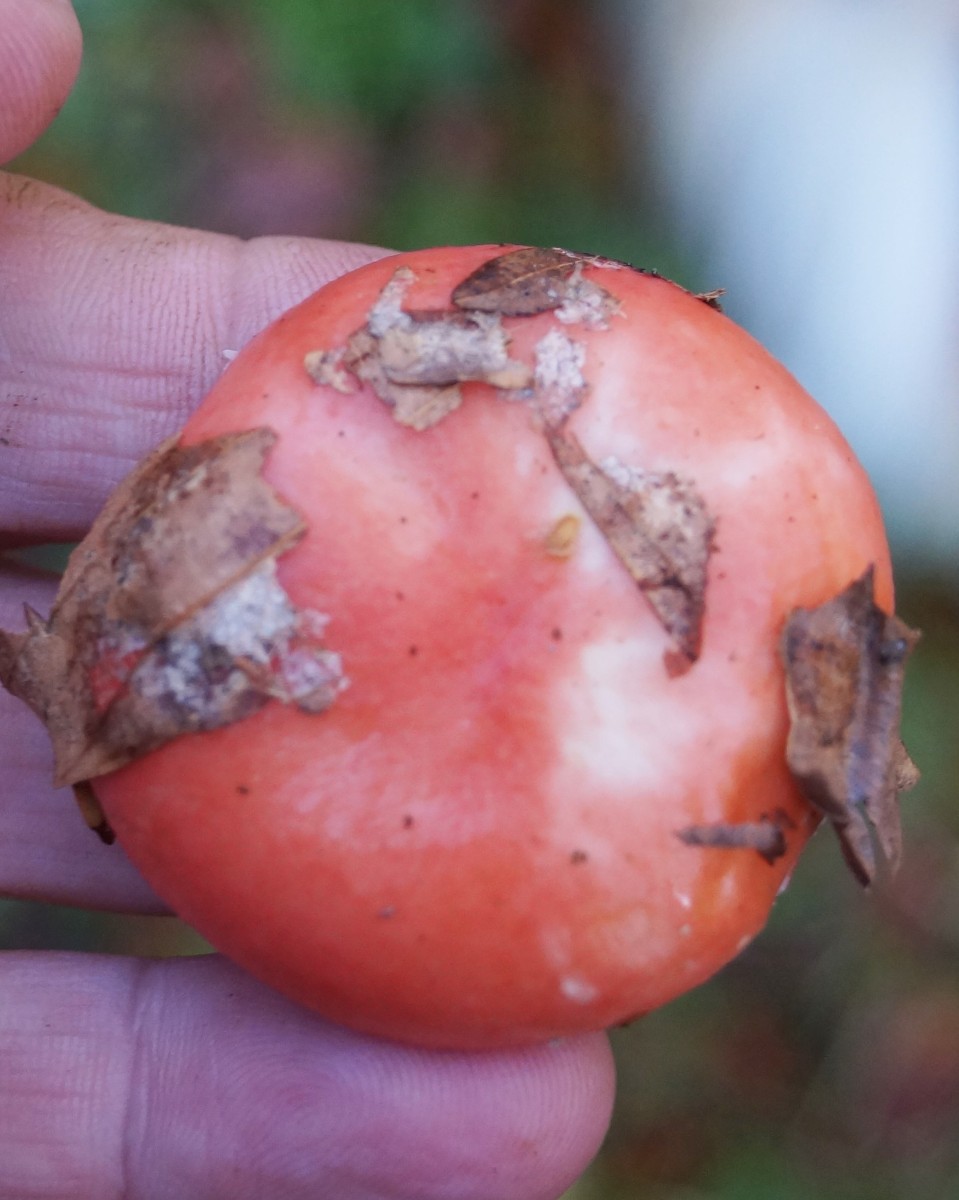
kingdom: Fungi
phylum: Basidiomycota
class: Agaricomycetes
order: Russulales
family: Russulaceae
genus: Russula
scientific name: Russula rosea
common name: fastkødet skørhat
